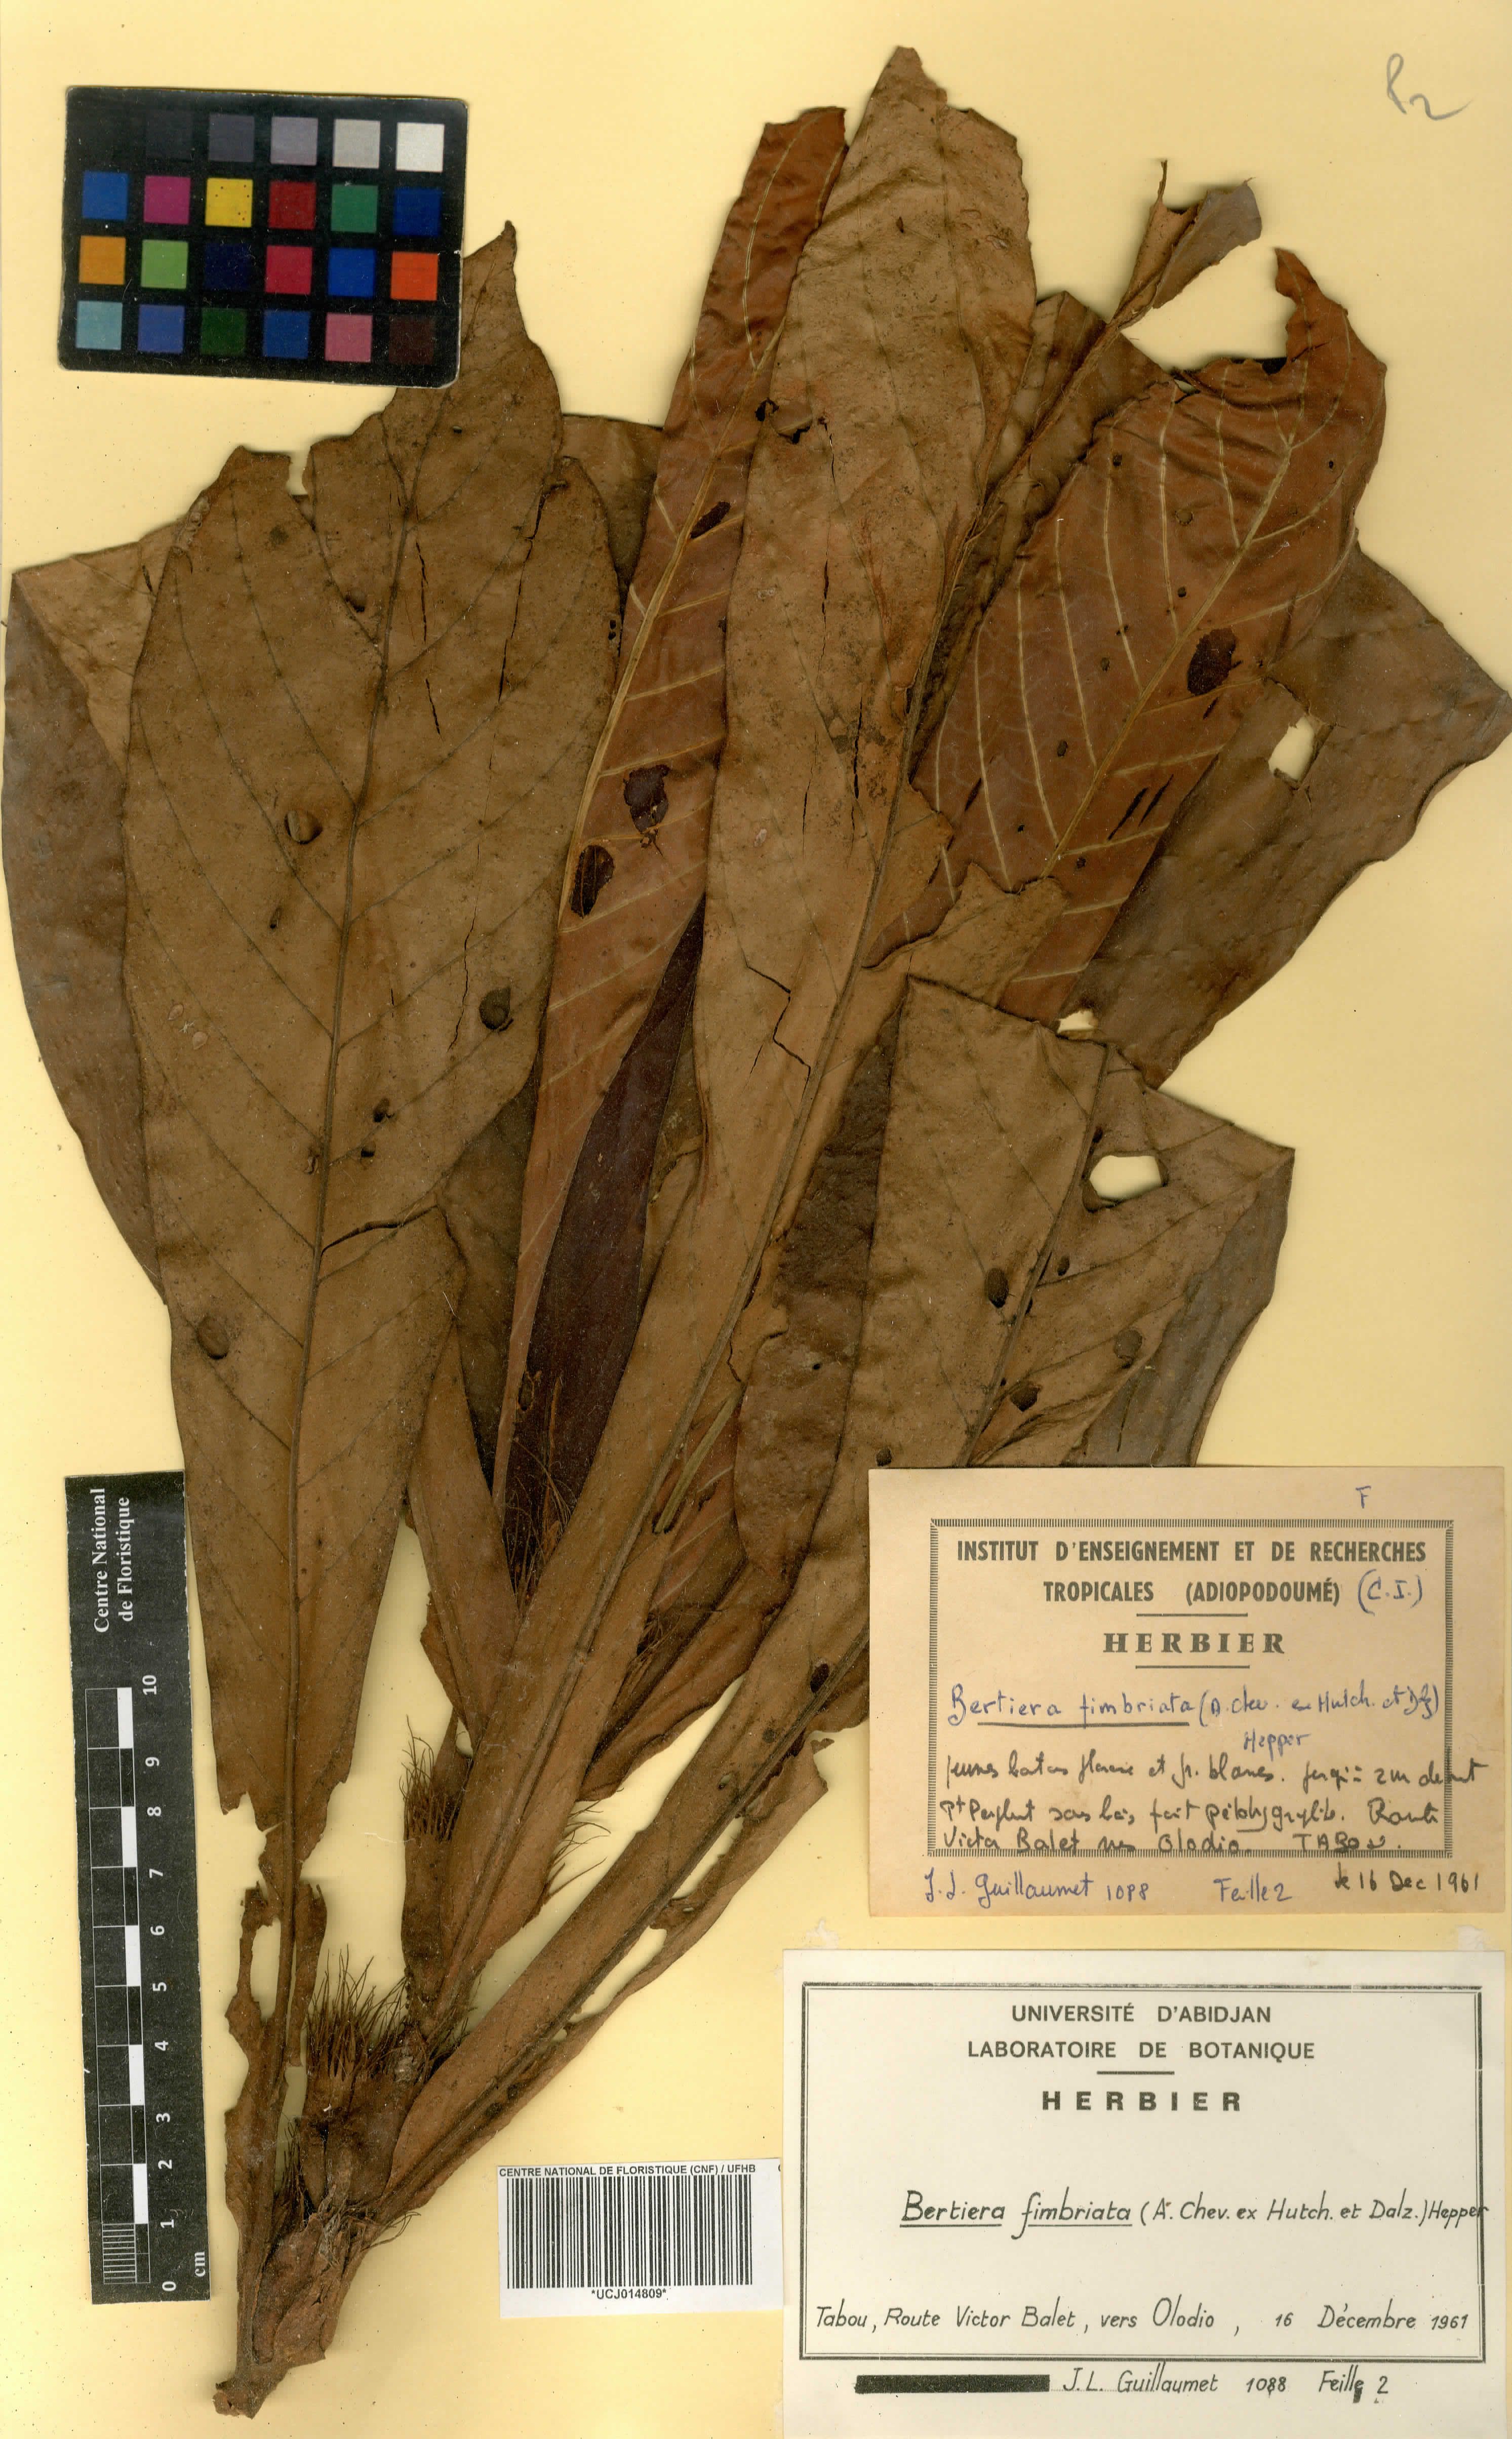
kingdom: Plantae
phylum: Tracheophyta
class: Magnoliopsida
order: Gentianales
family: Rubiaceae
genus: Bertiera
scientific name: Bertiera fimbriata
